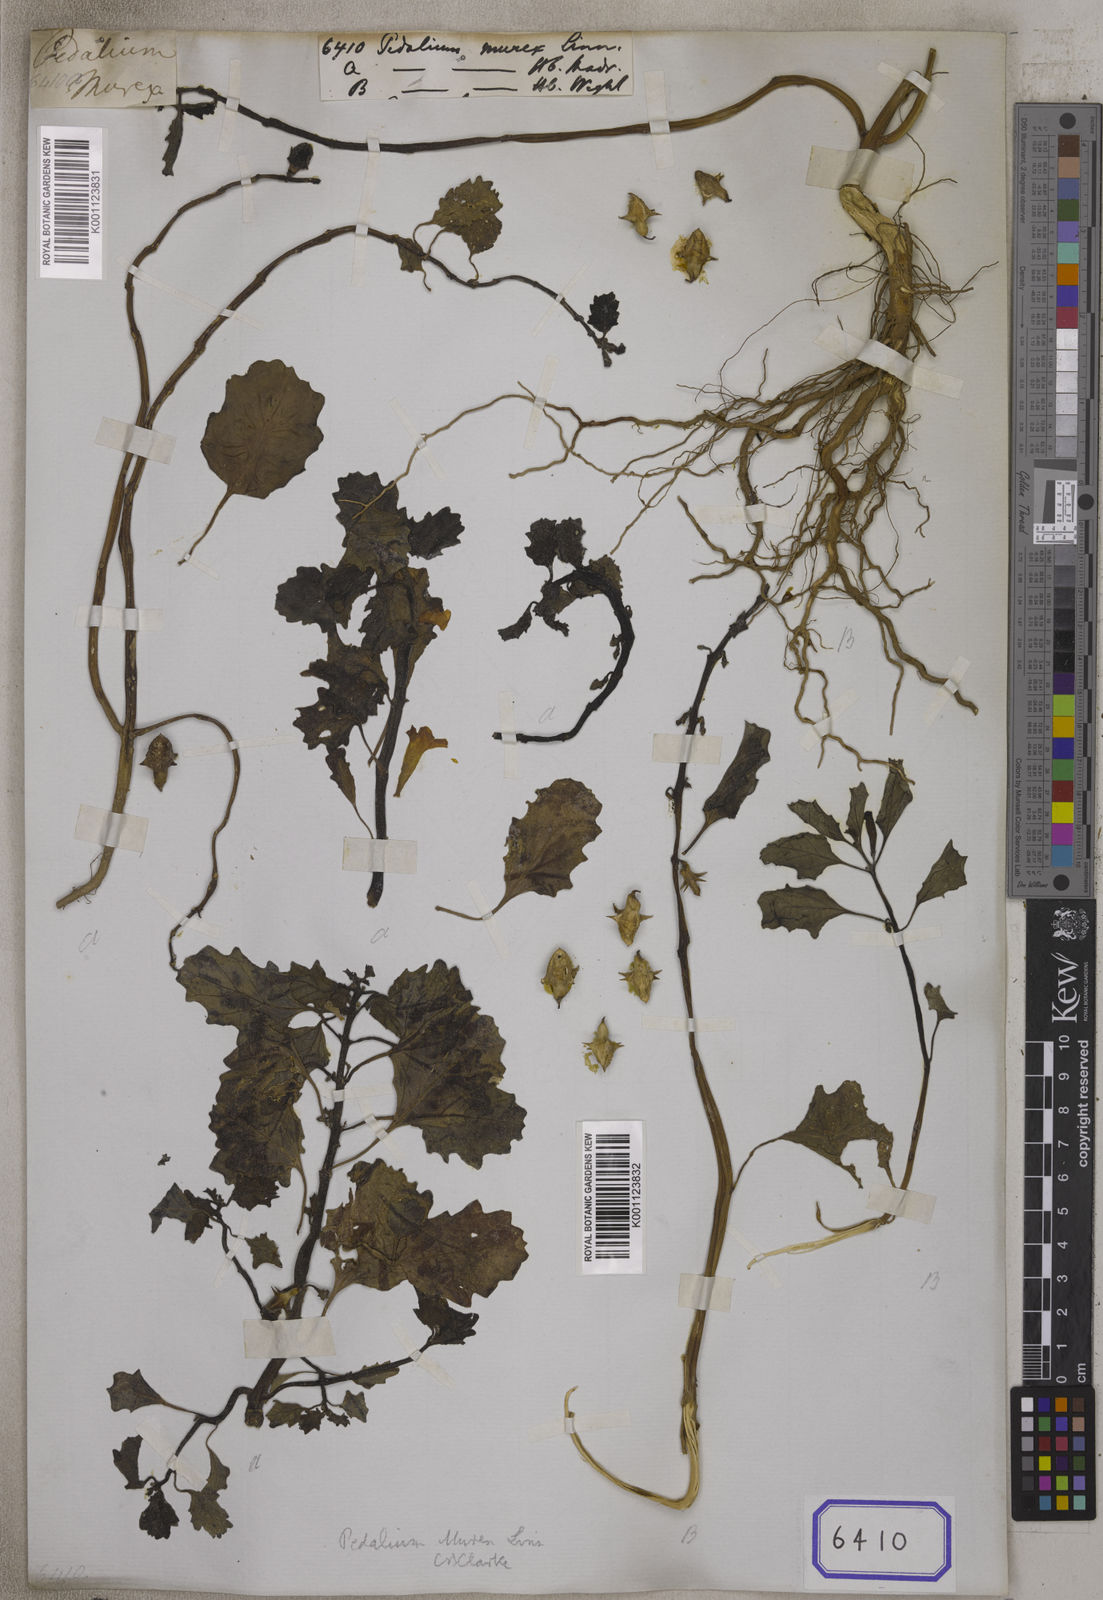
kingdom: Plantae
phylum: Tracheophyta
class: Magnoliopsida
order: Lamiales
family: Pedaliaceae
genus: Pedalium
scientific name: Pedalium murex
